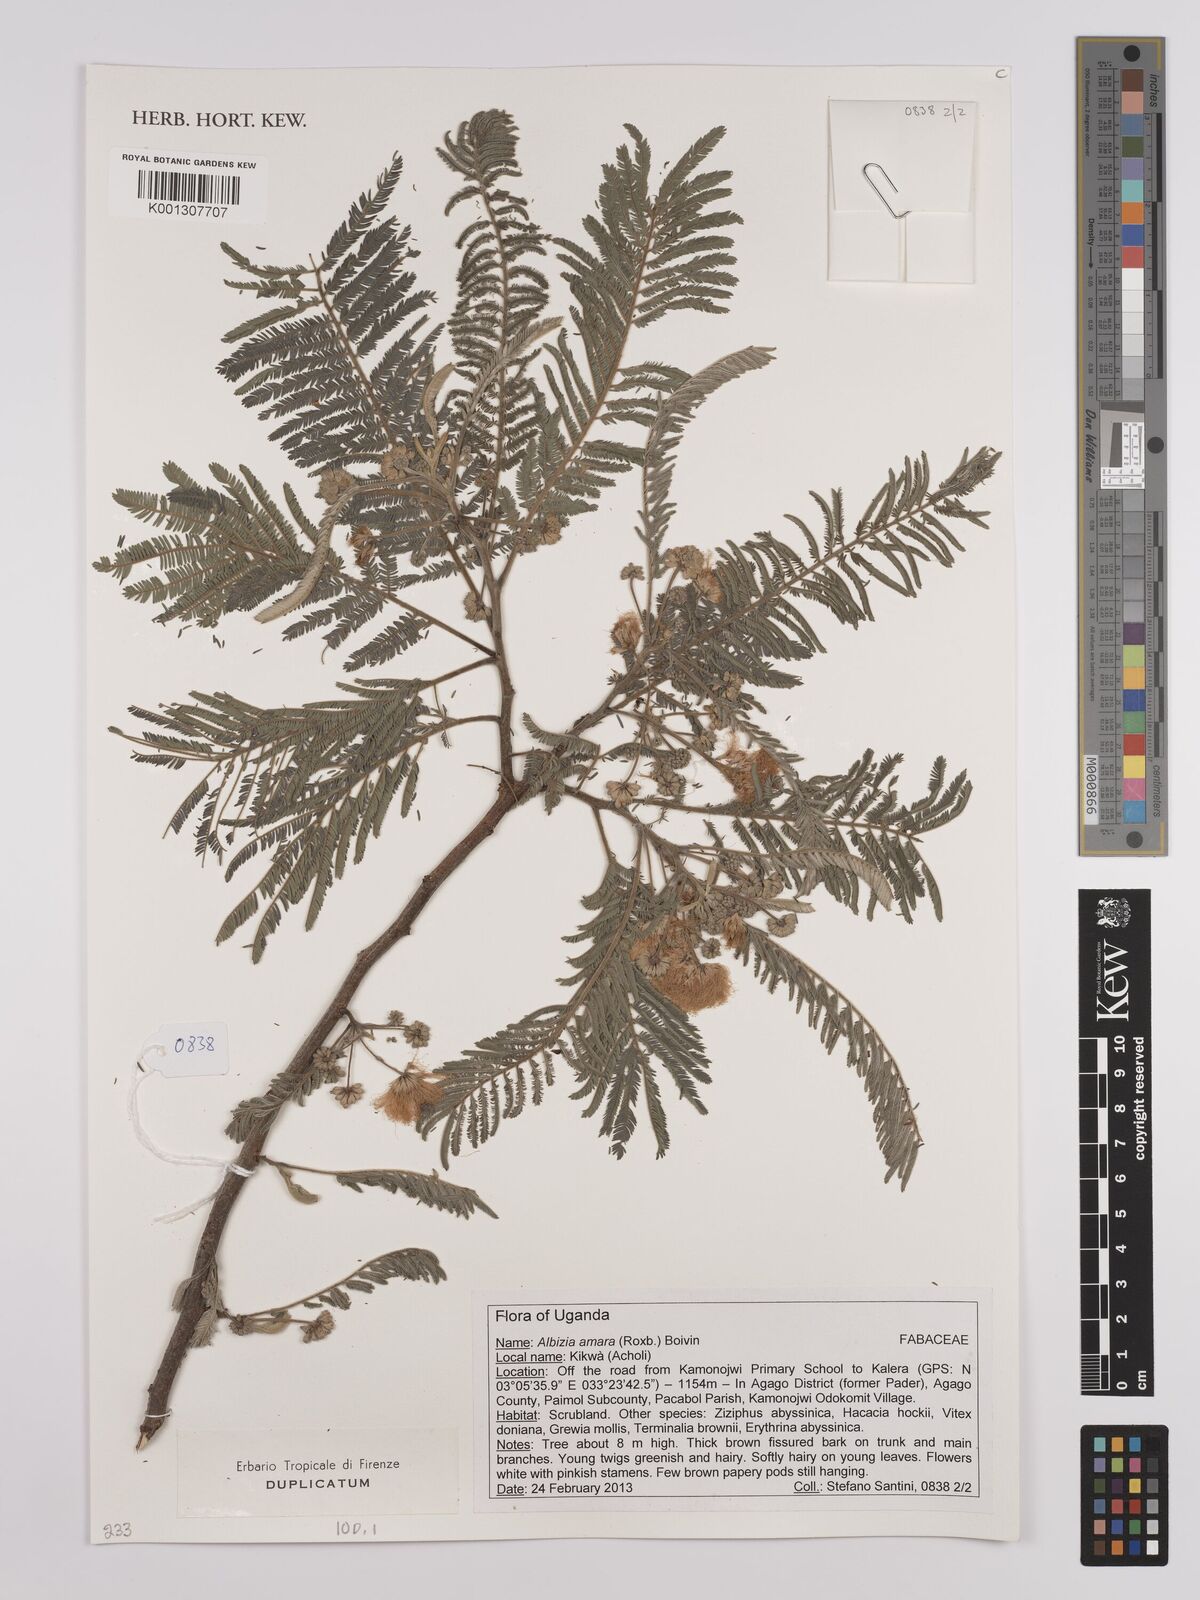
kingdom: Plantae
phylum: Tracheophyta
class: Magnoliopsida
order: Fabales
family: Fabaceae
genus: Albizia
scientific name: Albizia amara
